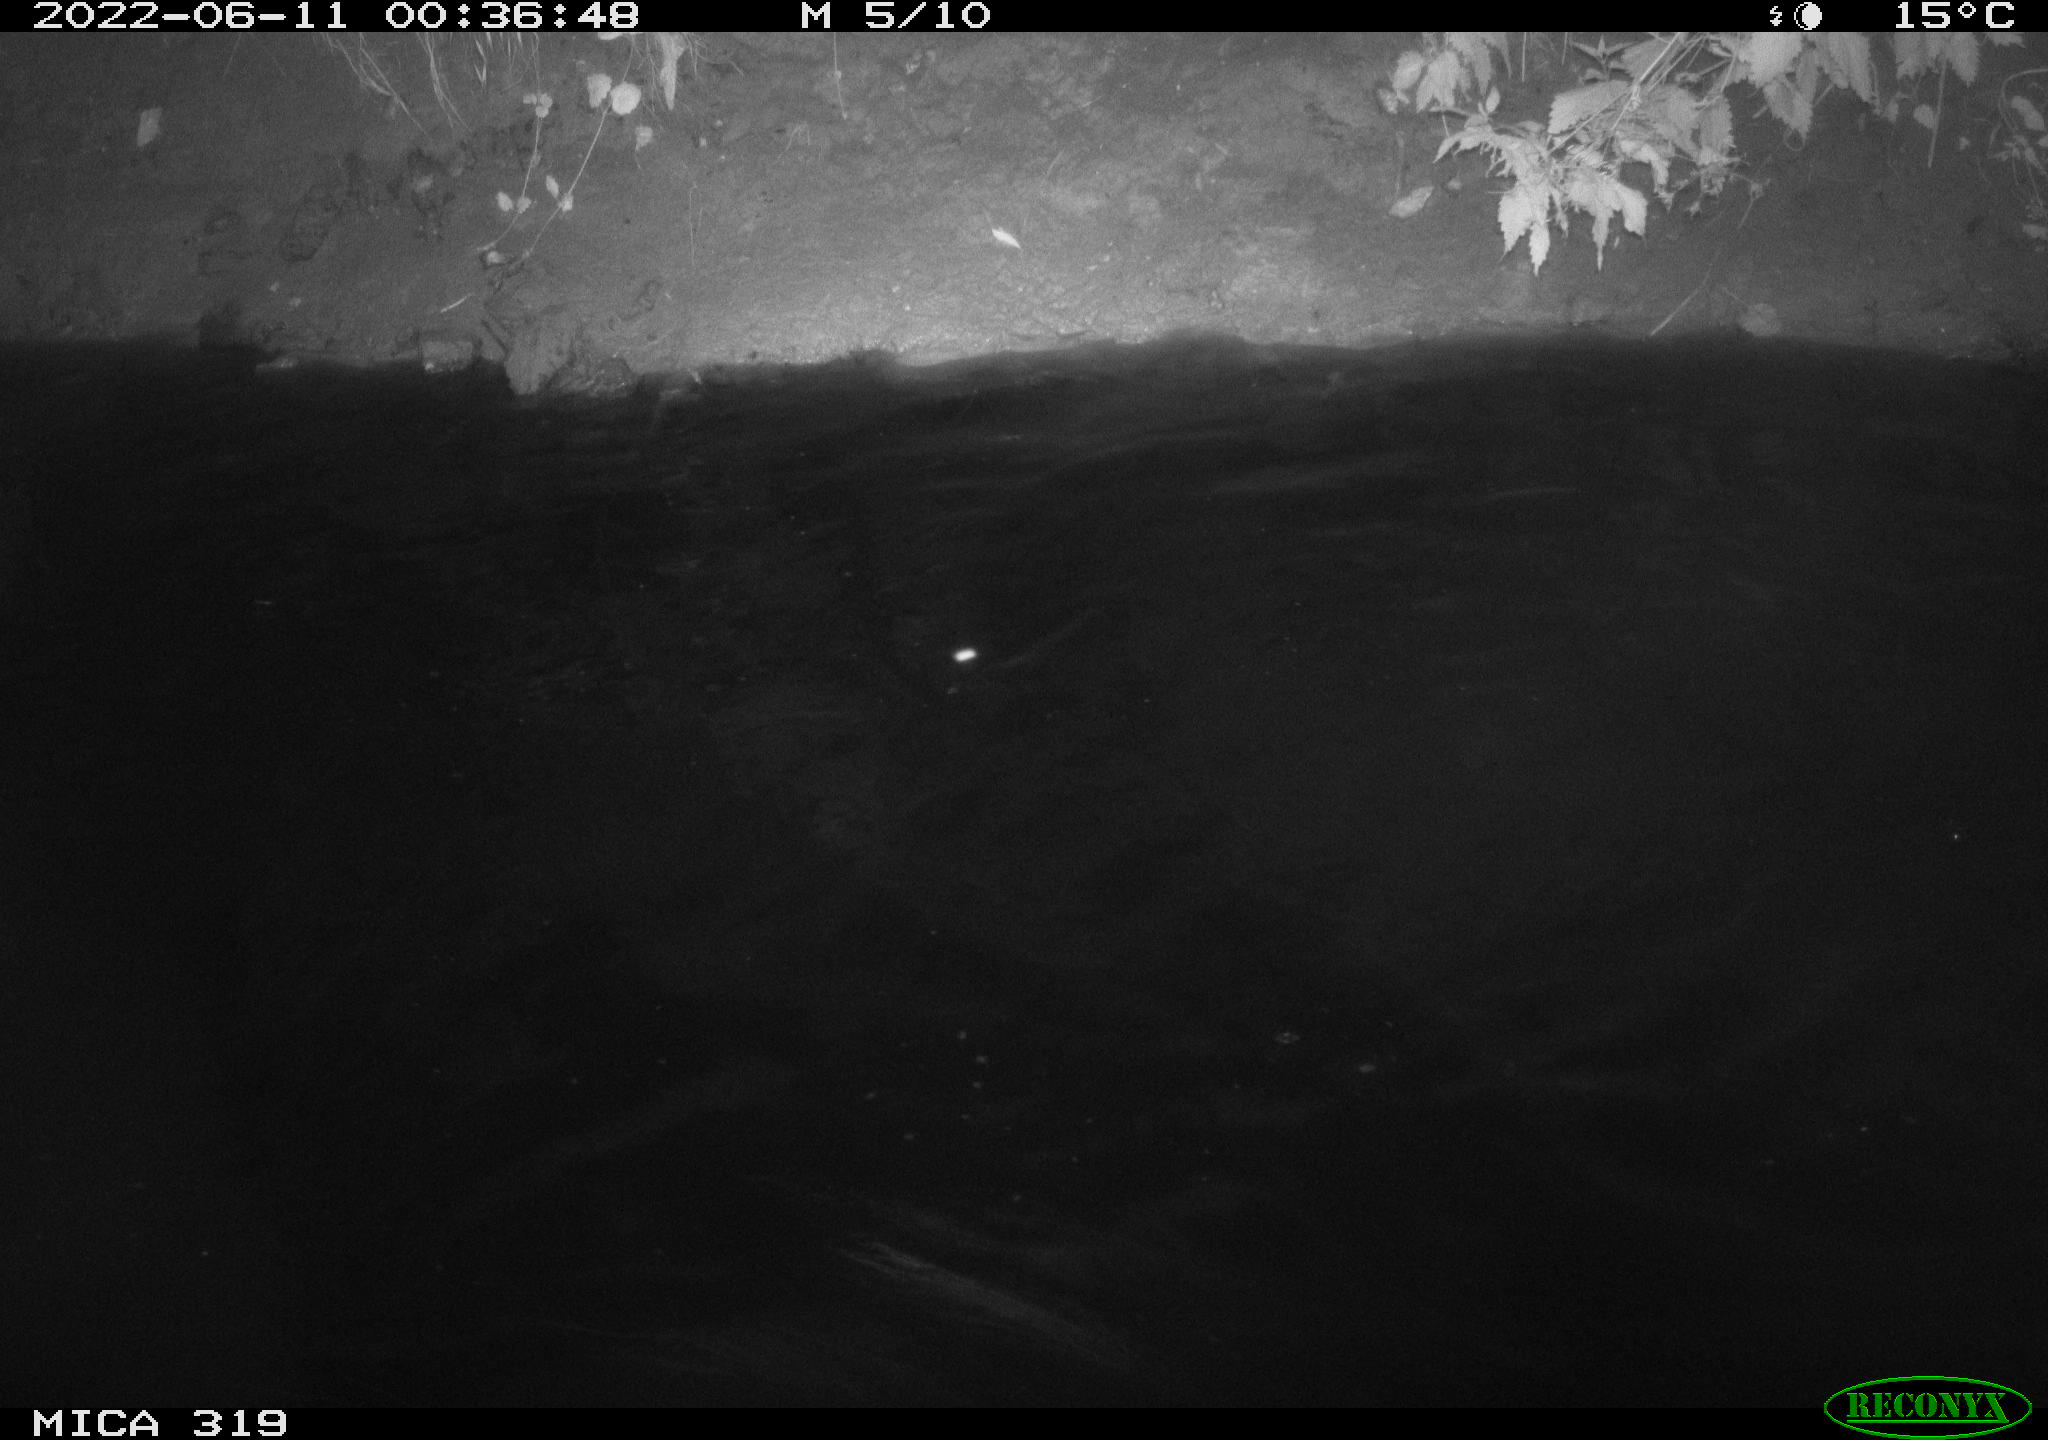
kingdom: Animalia
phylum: Chordata
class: Aves
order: Anseriformes
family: Anatidae
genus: Anas
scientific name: Anas
